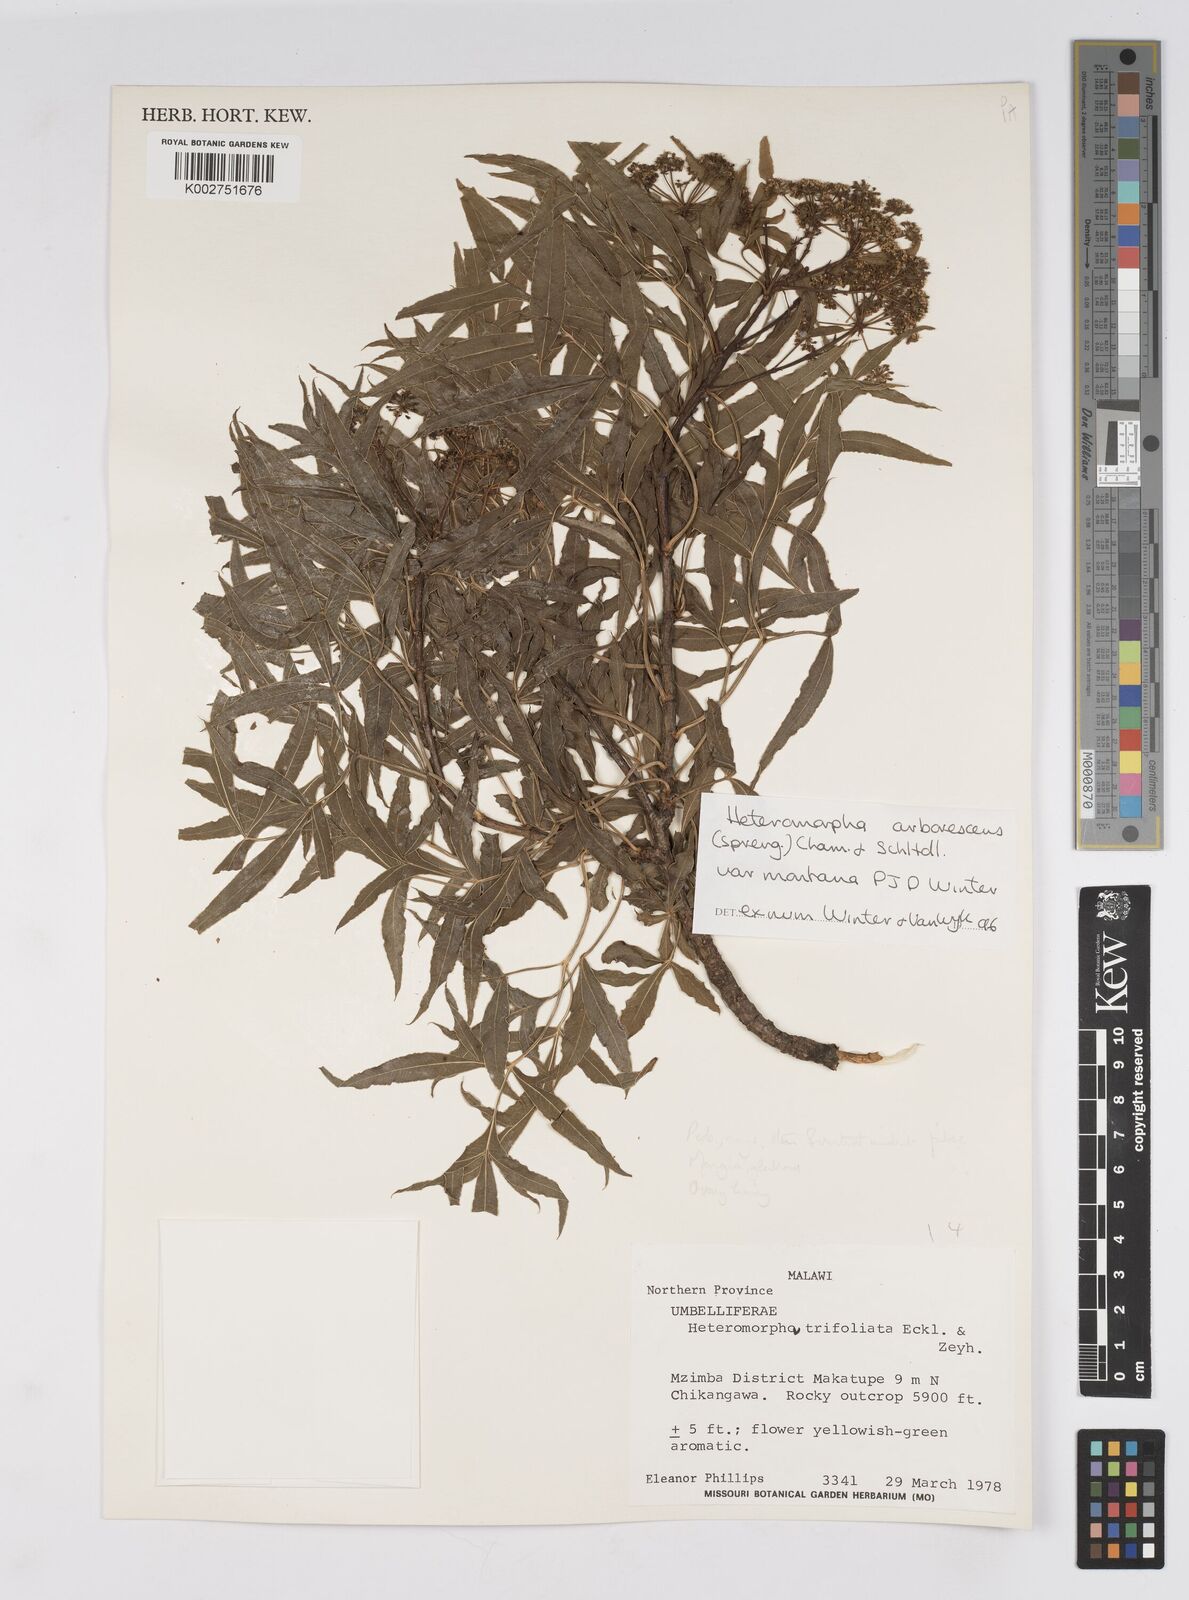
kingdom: Plantae
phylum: Tracheophyta
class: Magnoliopsida
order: Apiales
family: Apiaceae
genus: Heteromorpha
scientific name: Heteromorpha montana
